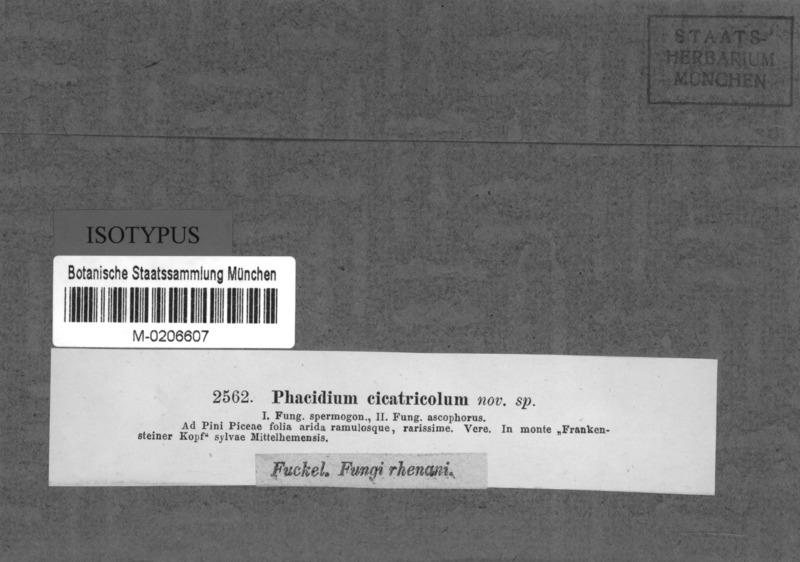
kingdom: Fungi
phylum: Ascomycota
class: Leotiomycetes
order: Phacidiales
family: Phacidiaceae
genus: Phacidium
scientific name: Phacidium
